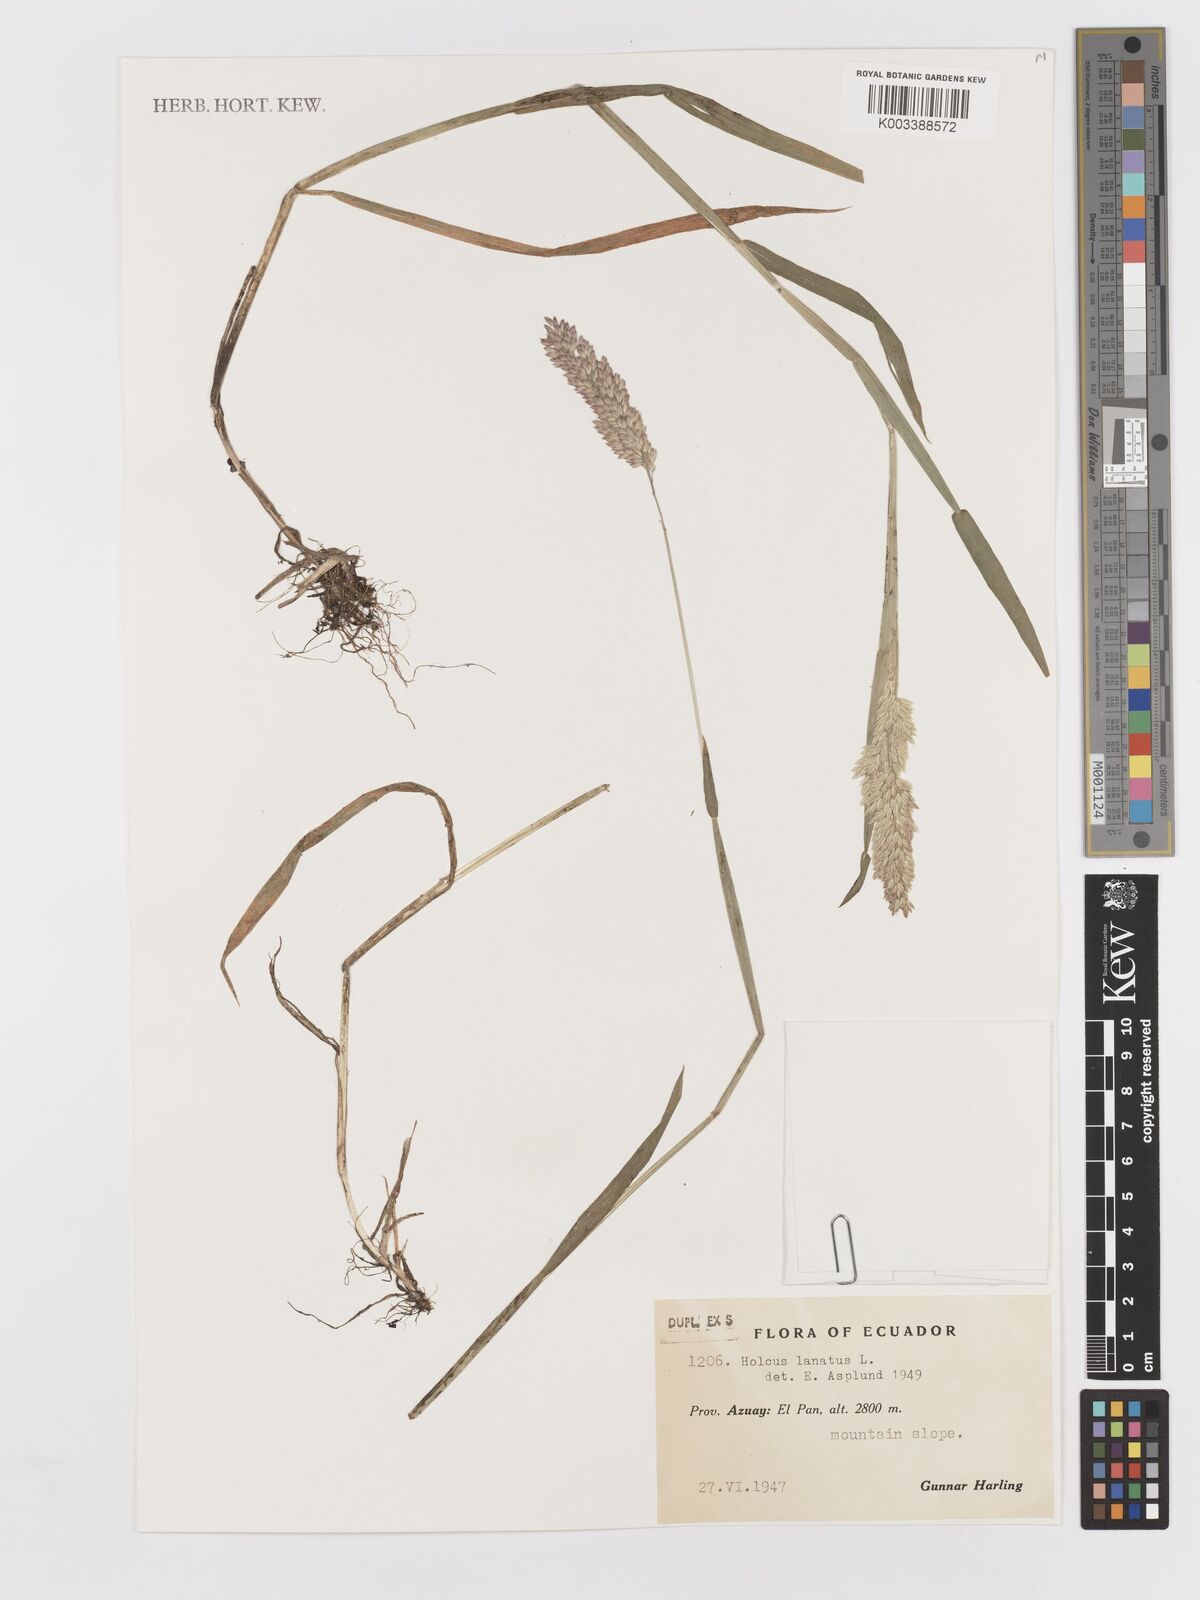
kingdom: Plantae
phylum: Tracheophyta
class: Liliopsida
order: Poales
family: Poaceae
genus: Holcus
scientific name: Holcus lanatus
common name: Yorkshire-fog
